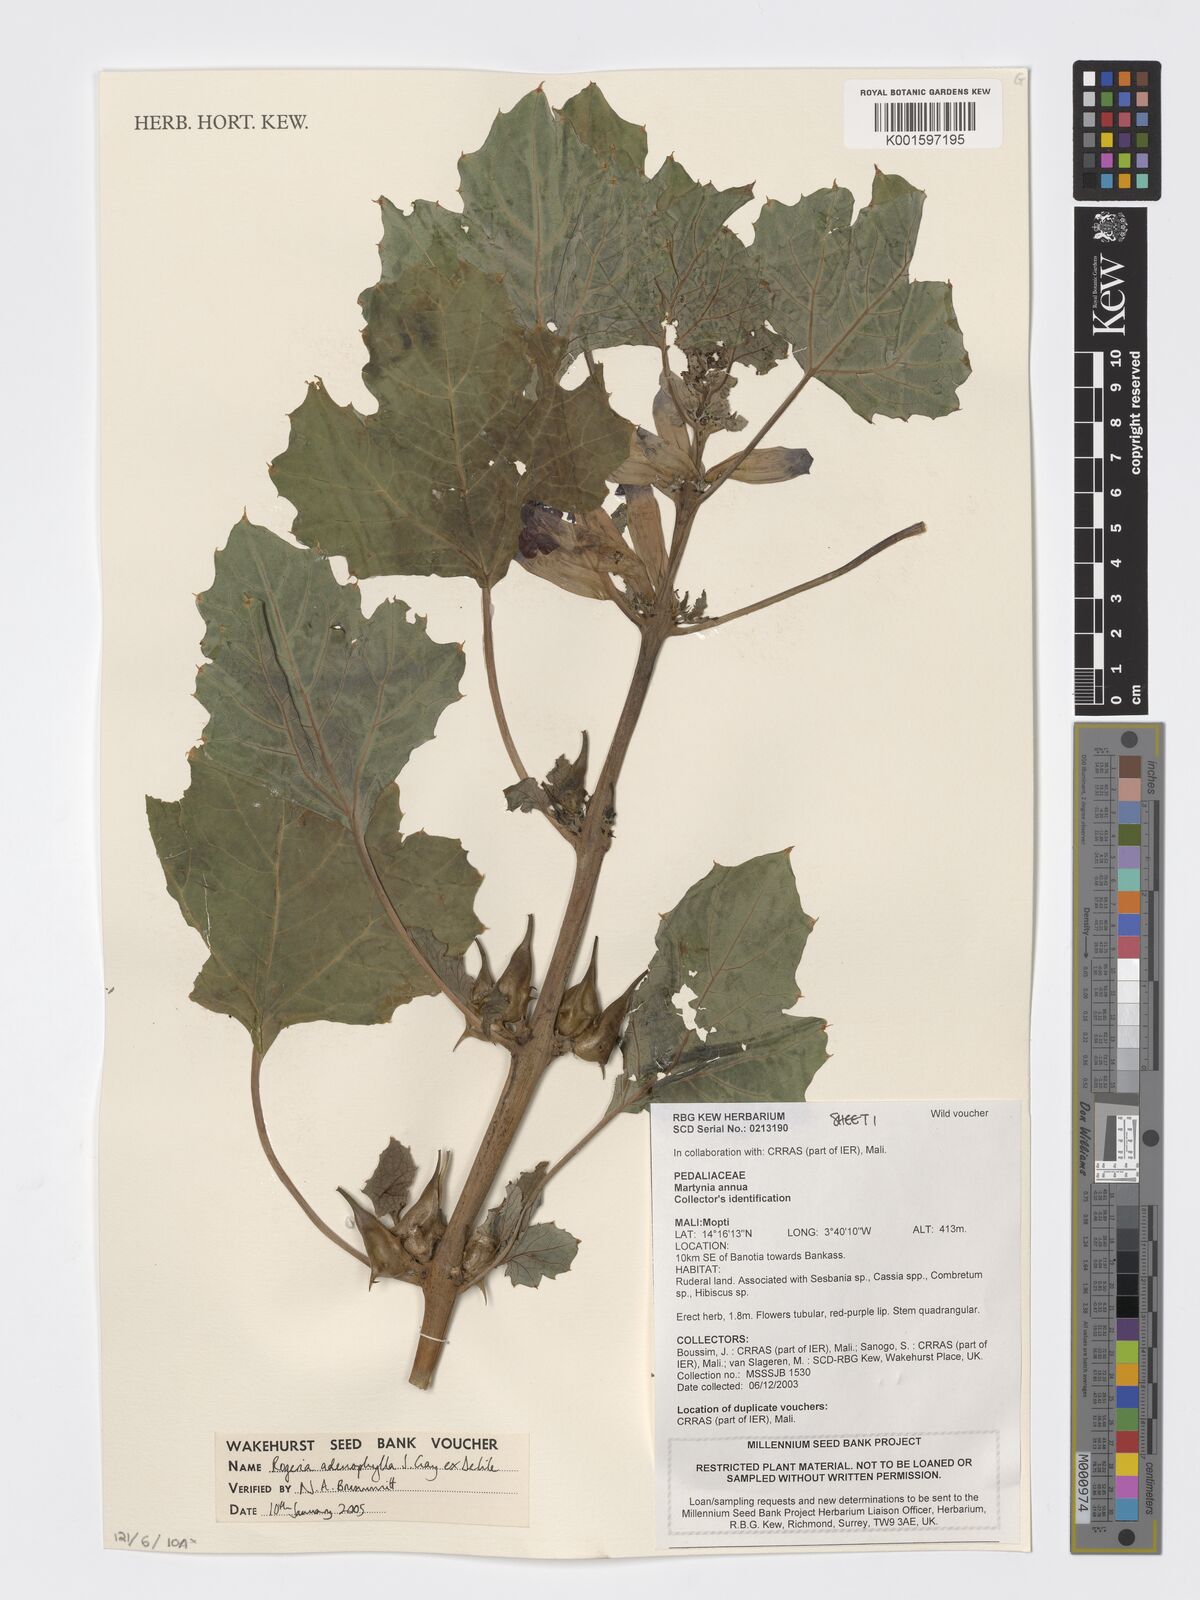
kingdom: Plantae
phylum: Tracheophyta
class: Magnoliopsida
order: Lamiales
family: Pedaliaceae
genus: Rogeria
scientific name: Rogeria adenophylla
